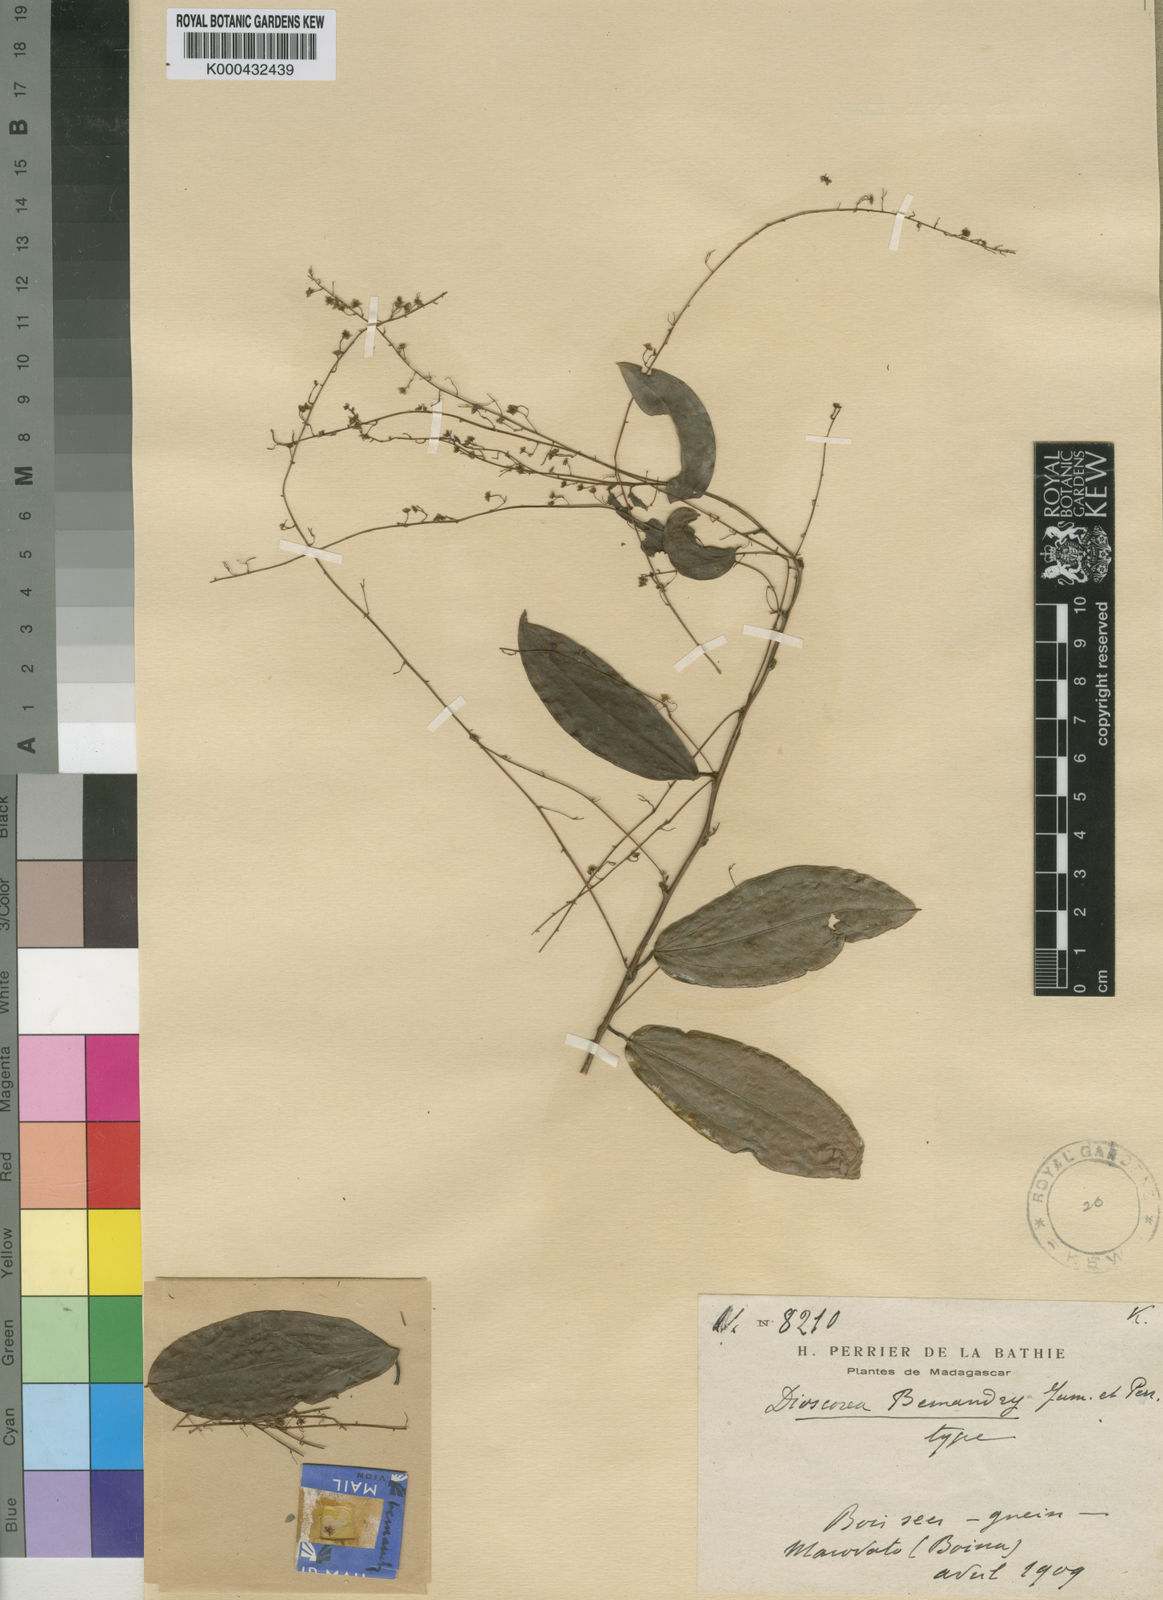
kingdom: Plantae
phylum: Tracheophyta
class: Liliopsida
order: Dioscoreales
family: Dioscoreaceae
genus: Dioscorea
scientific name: Dioscorea bemandry
